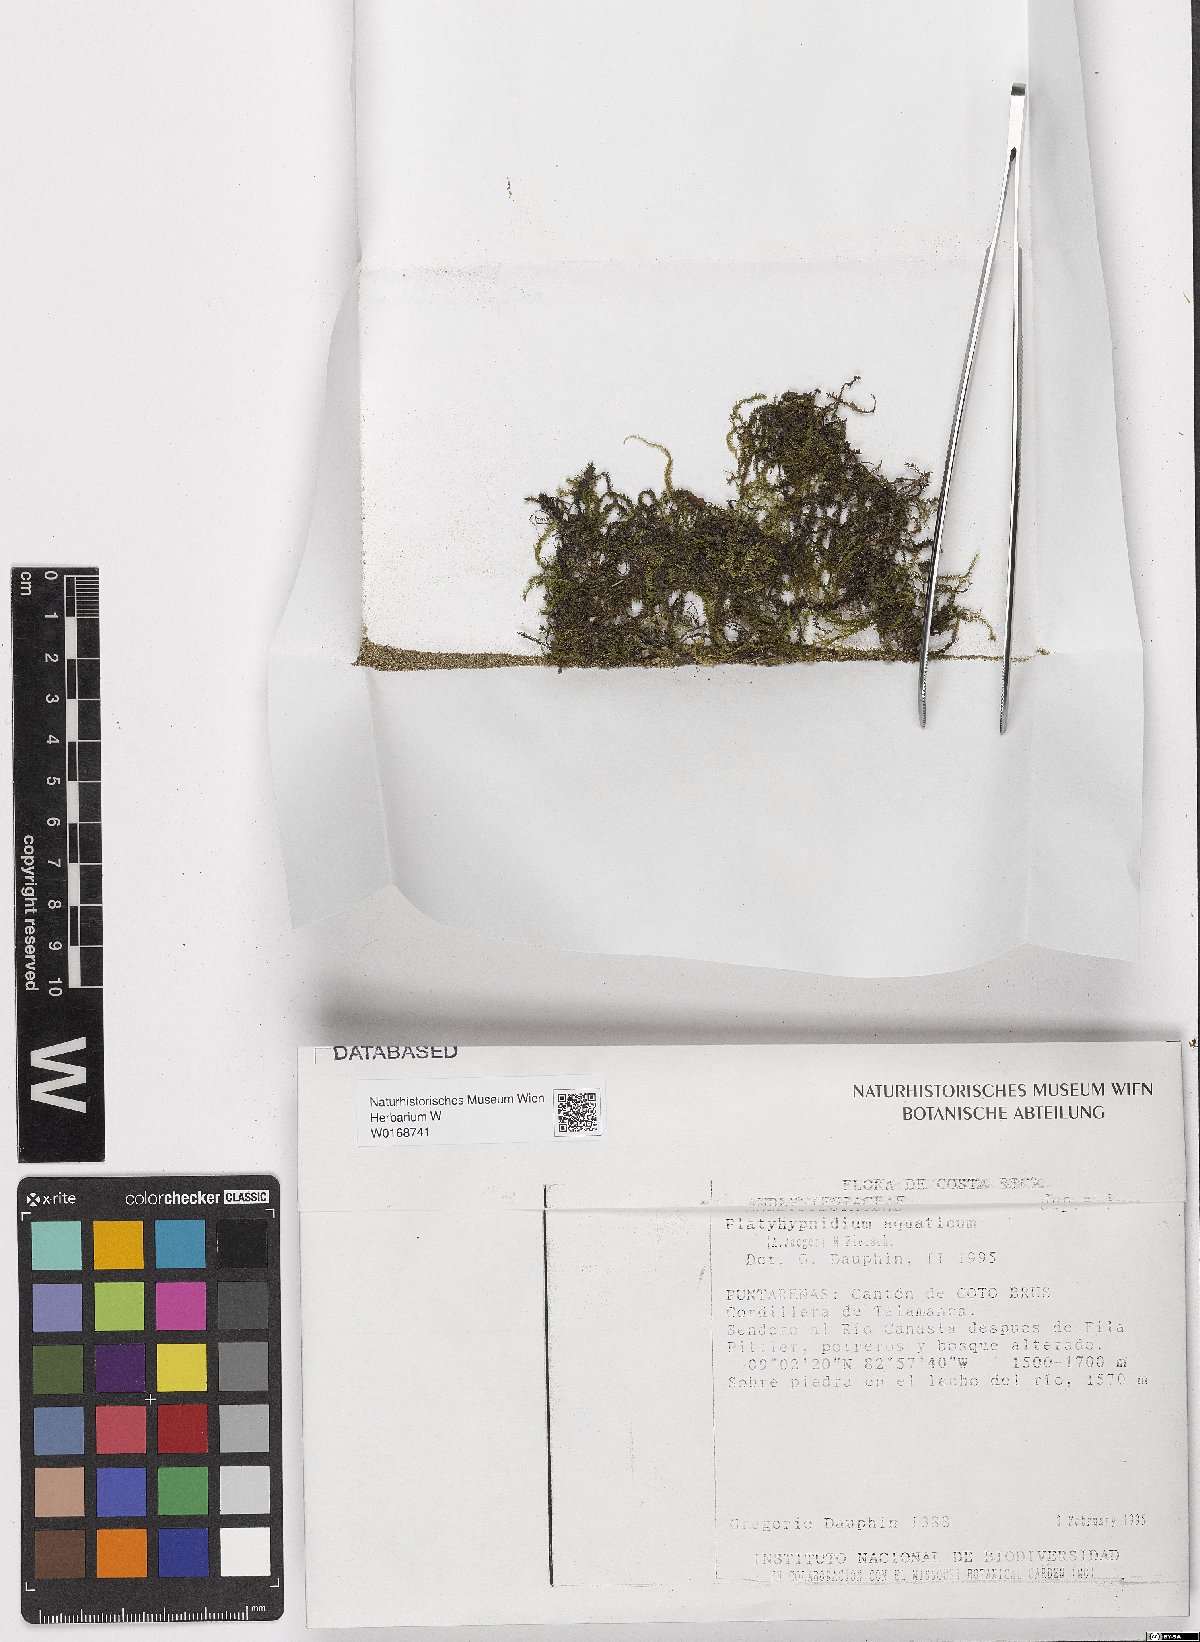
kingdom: Plantae
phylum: Bryophyta
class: Bryopsida
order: Hypnales
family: Brachytheciaceae
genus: Rhynchostegium
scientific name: Rhynchostegium aquaticum
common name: Aquatic long-beaked moss
